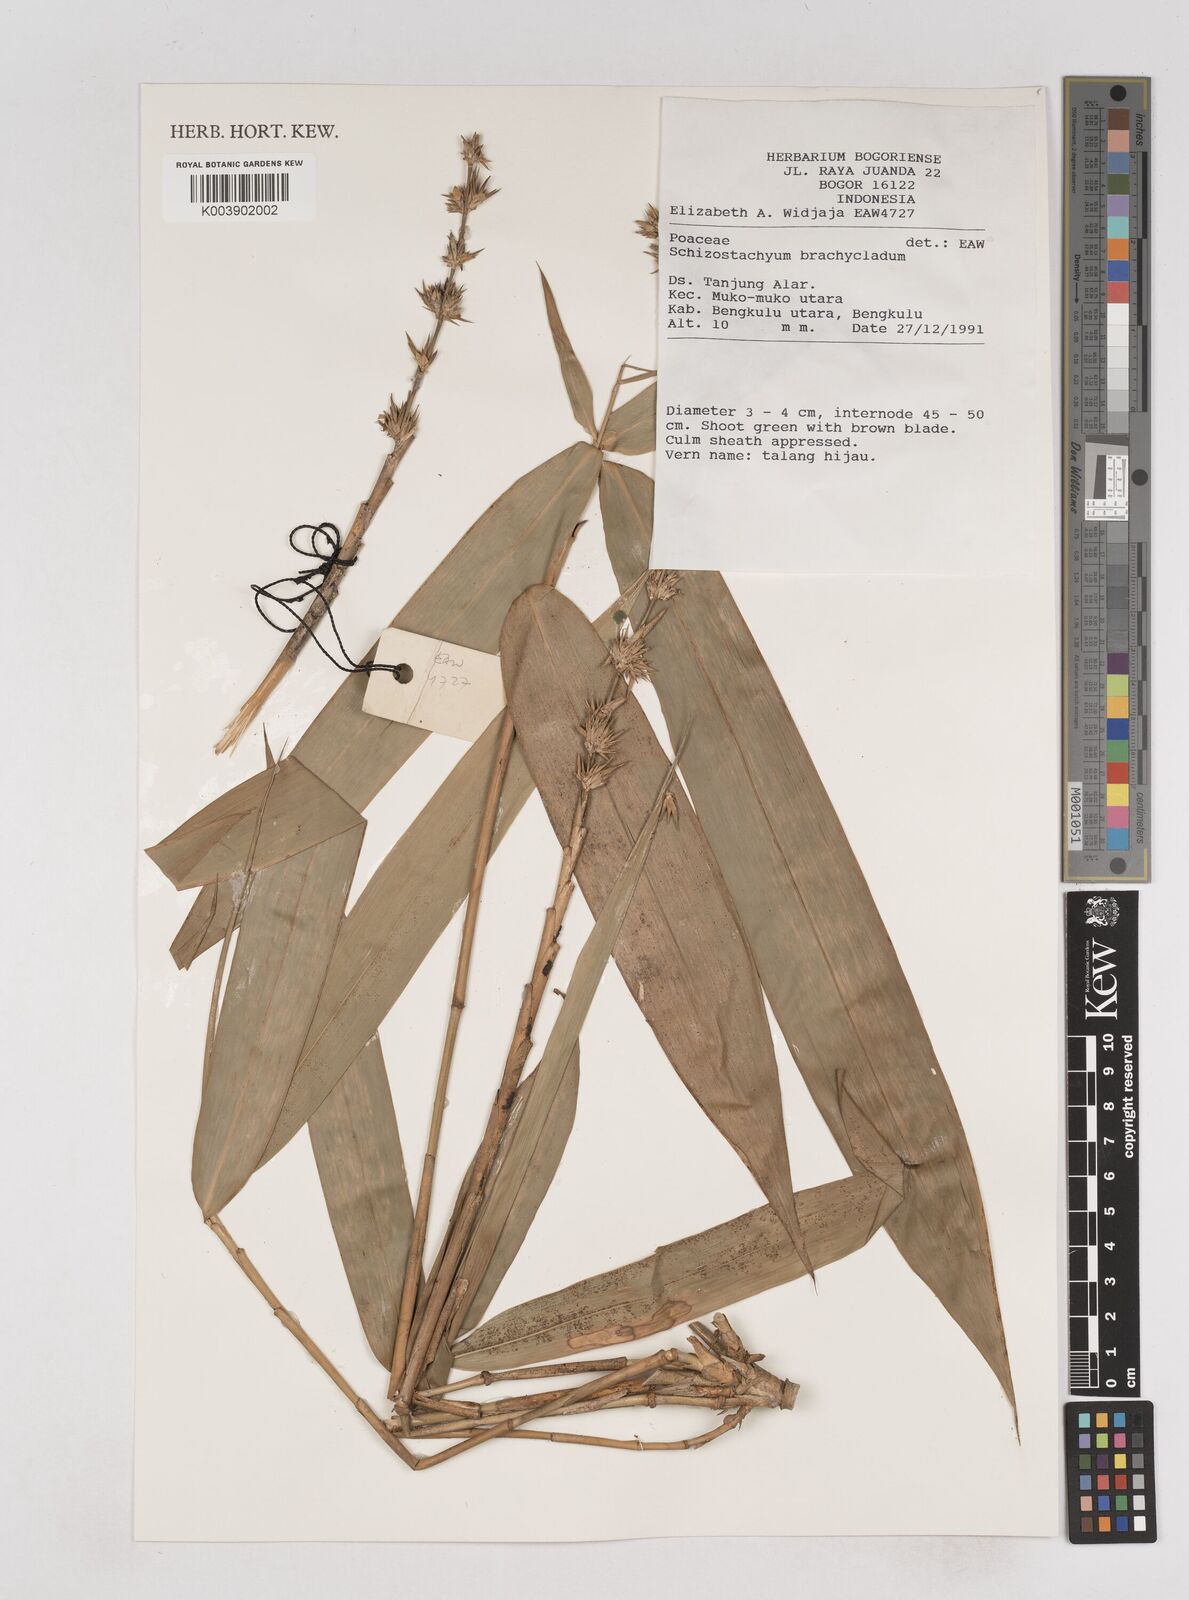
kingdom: Plantae
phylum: Tracheophyta
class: Liliopsida
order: Poales
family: Poaceae
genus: Schizostachyum
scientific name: Schizostachyum brachycladum
